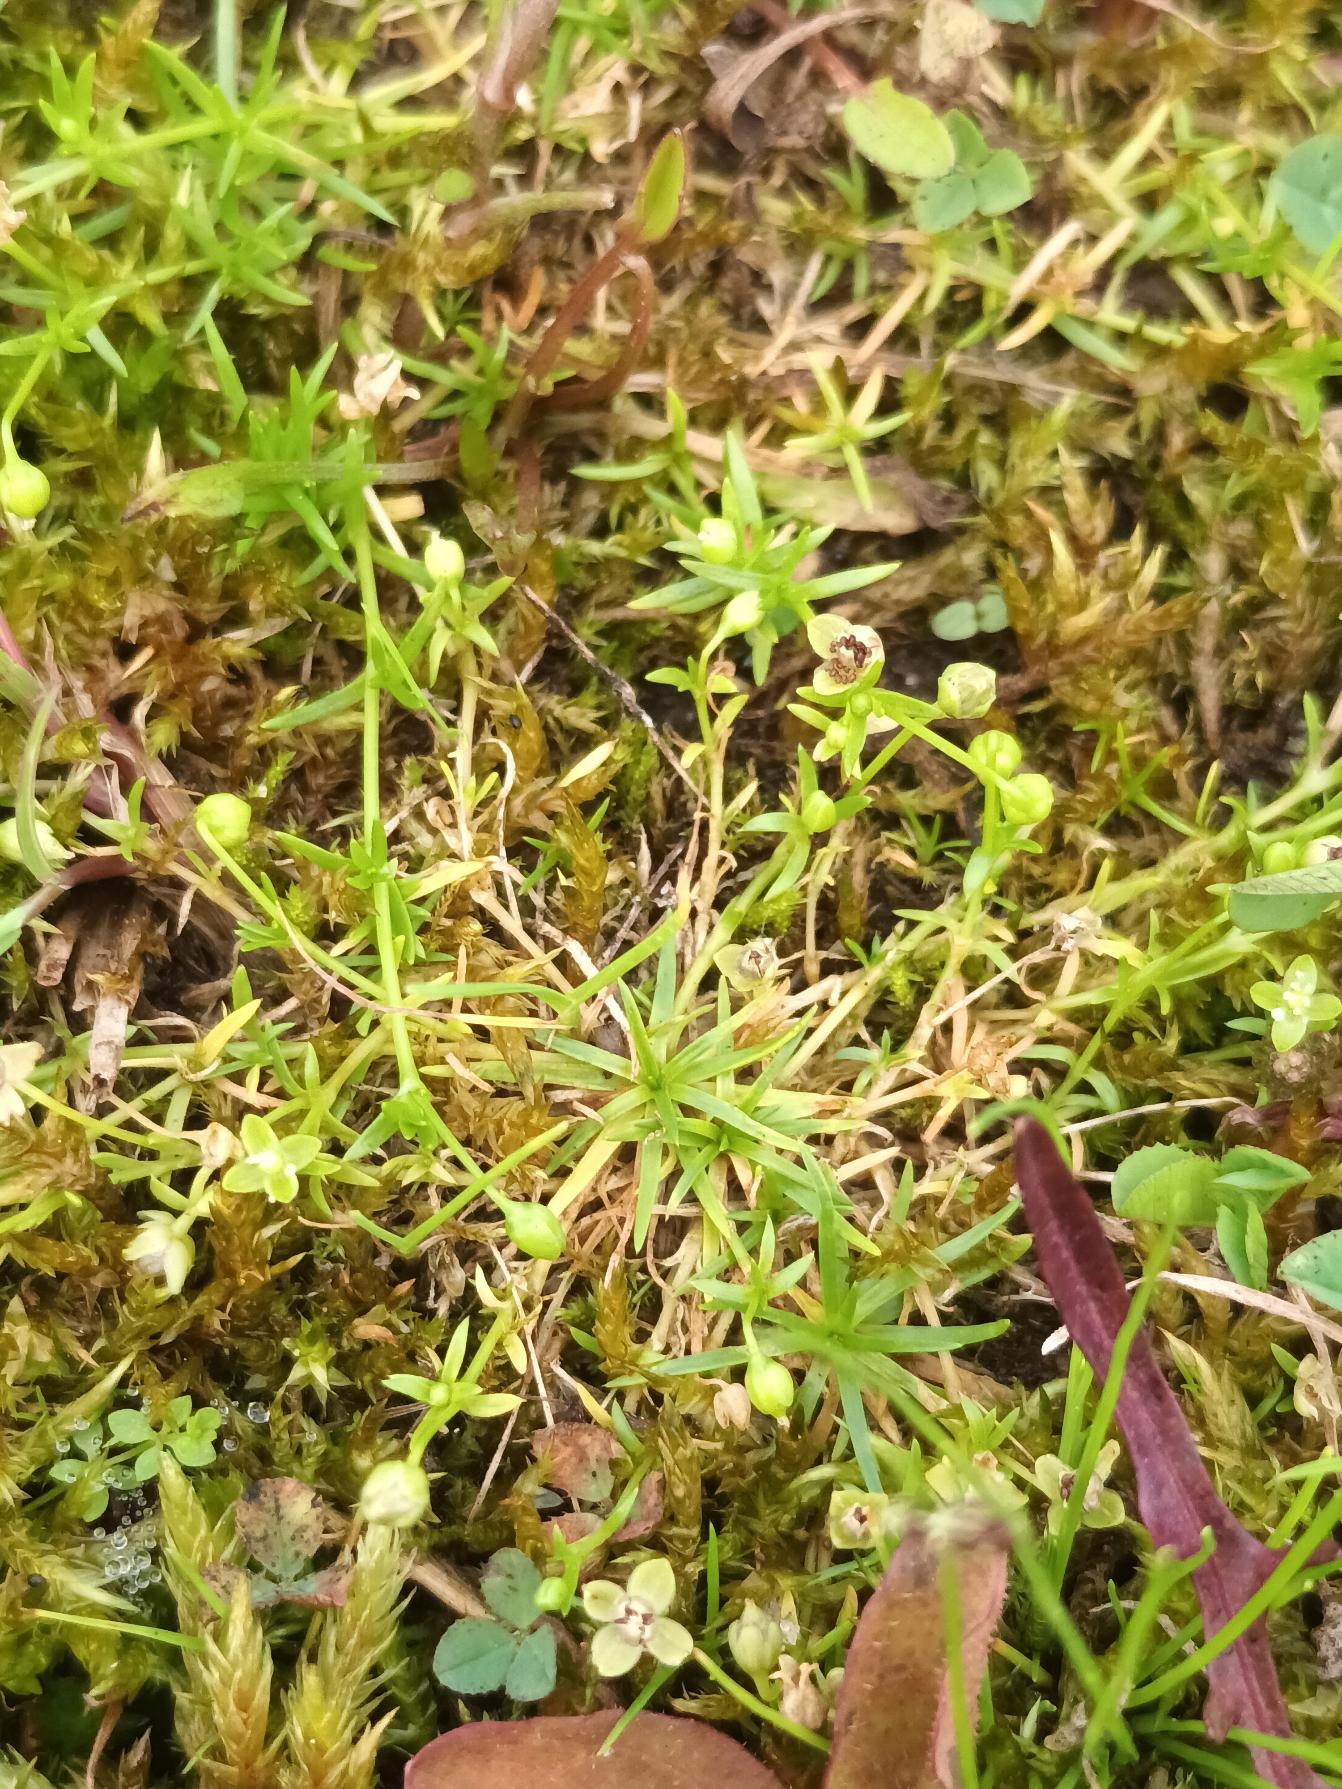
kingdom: Plantae
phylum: Tracheophyta
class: Magnoliopsida
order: Caryophyllales
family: Caryophyllaceae
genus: Sagina
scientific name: Sagina procumbens
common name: Almindelig firling
